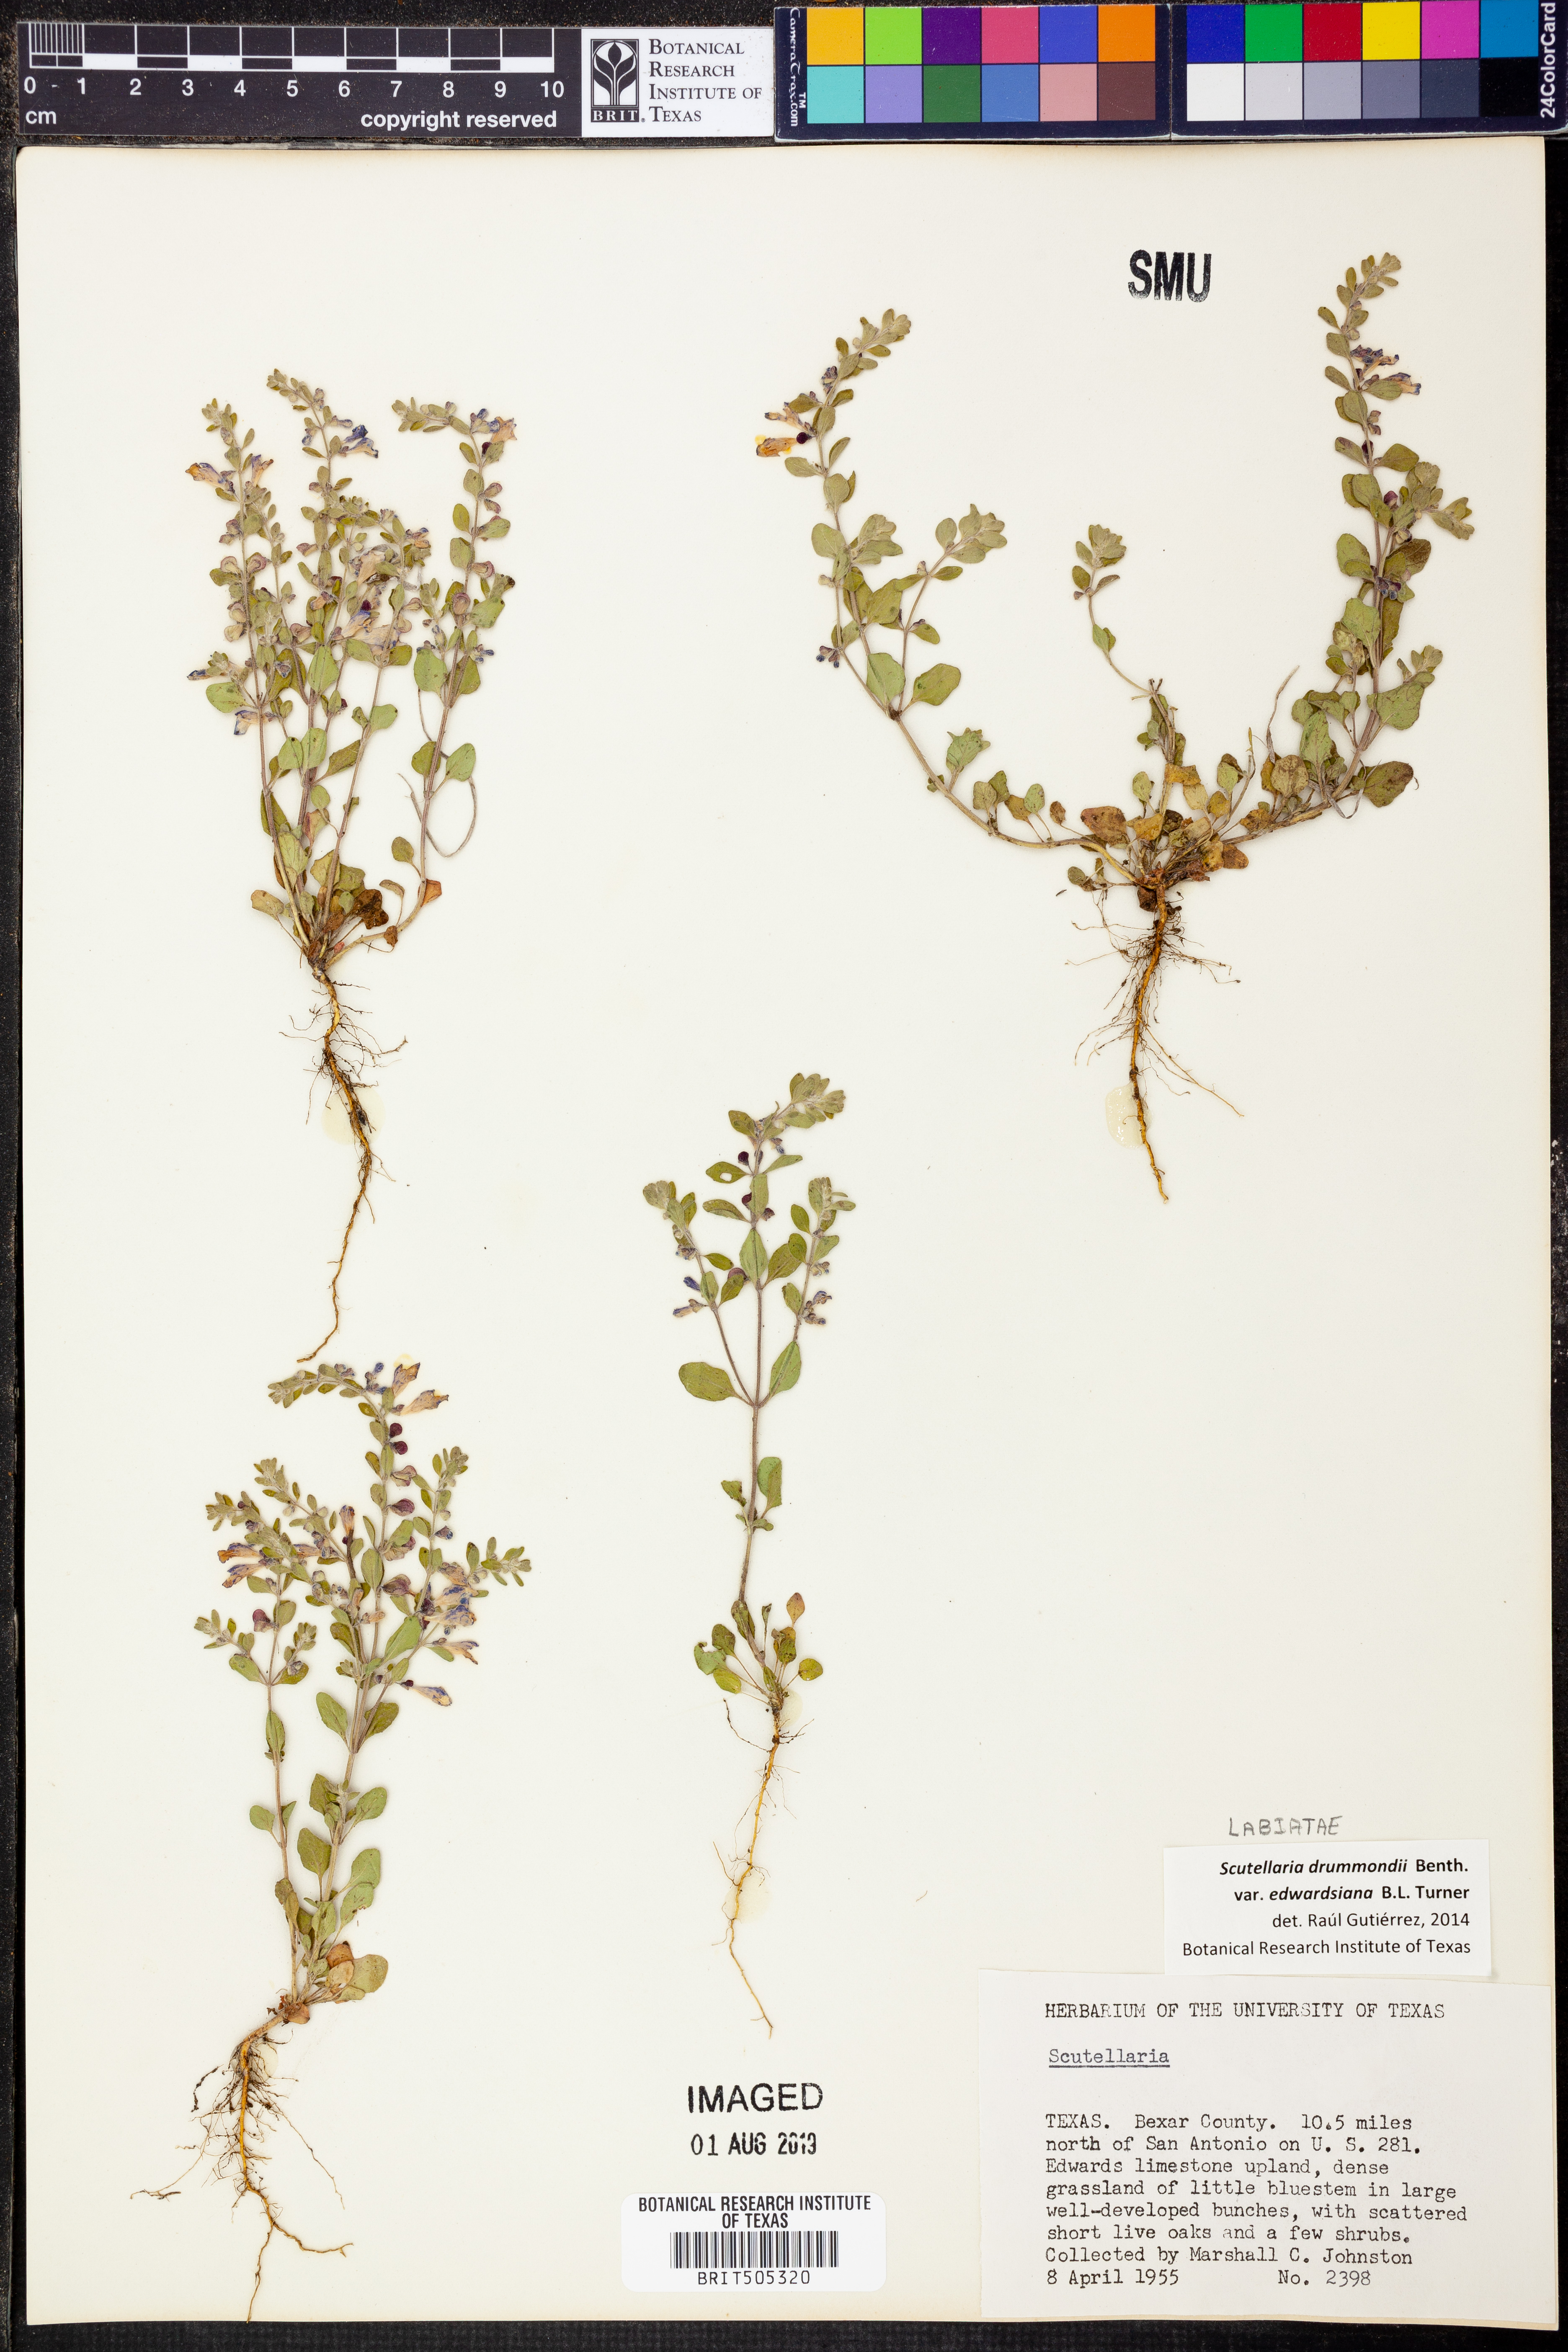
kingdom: Plantae
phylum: Tracheophyta
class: Magnoliopsida
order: Lamiales
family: Lamiaceae
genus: Scutellaria
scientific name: Scutellaria drummondii
